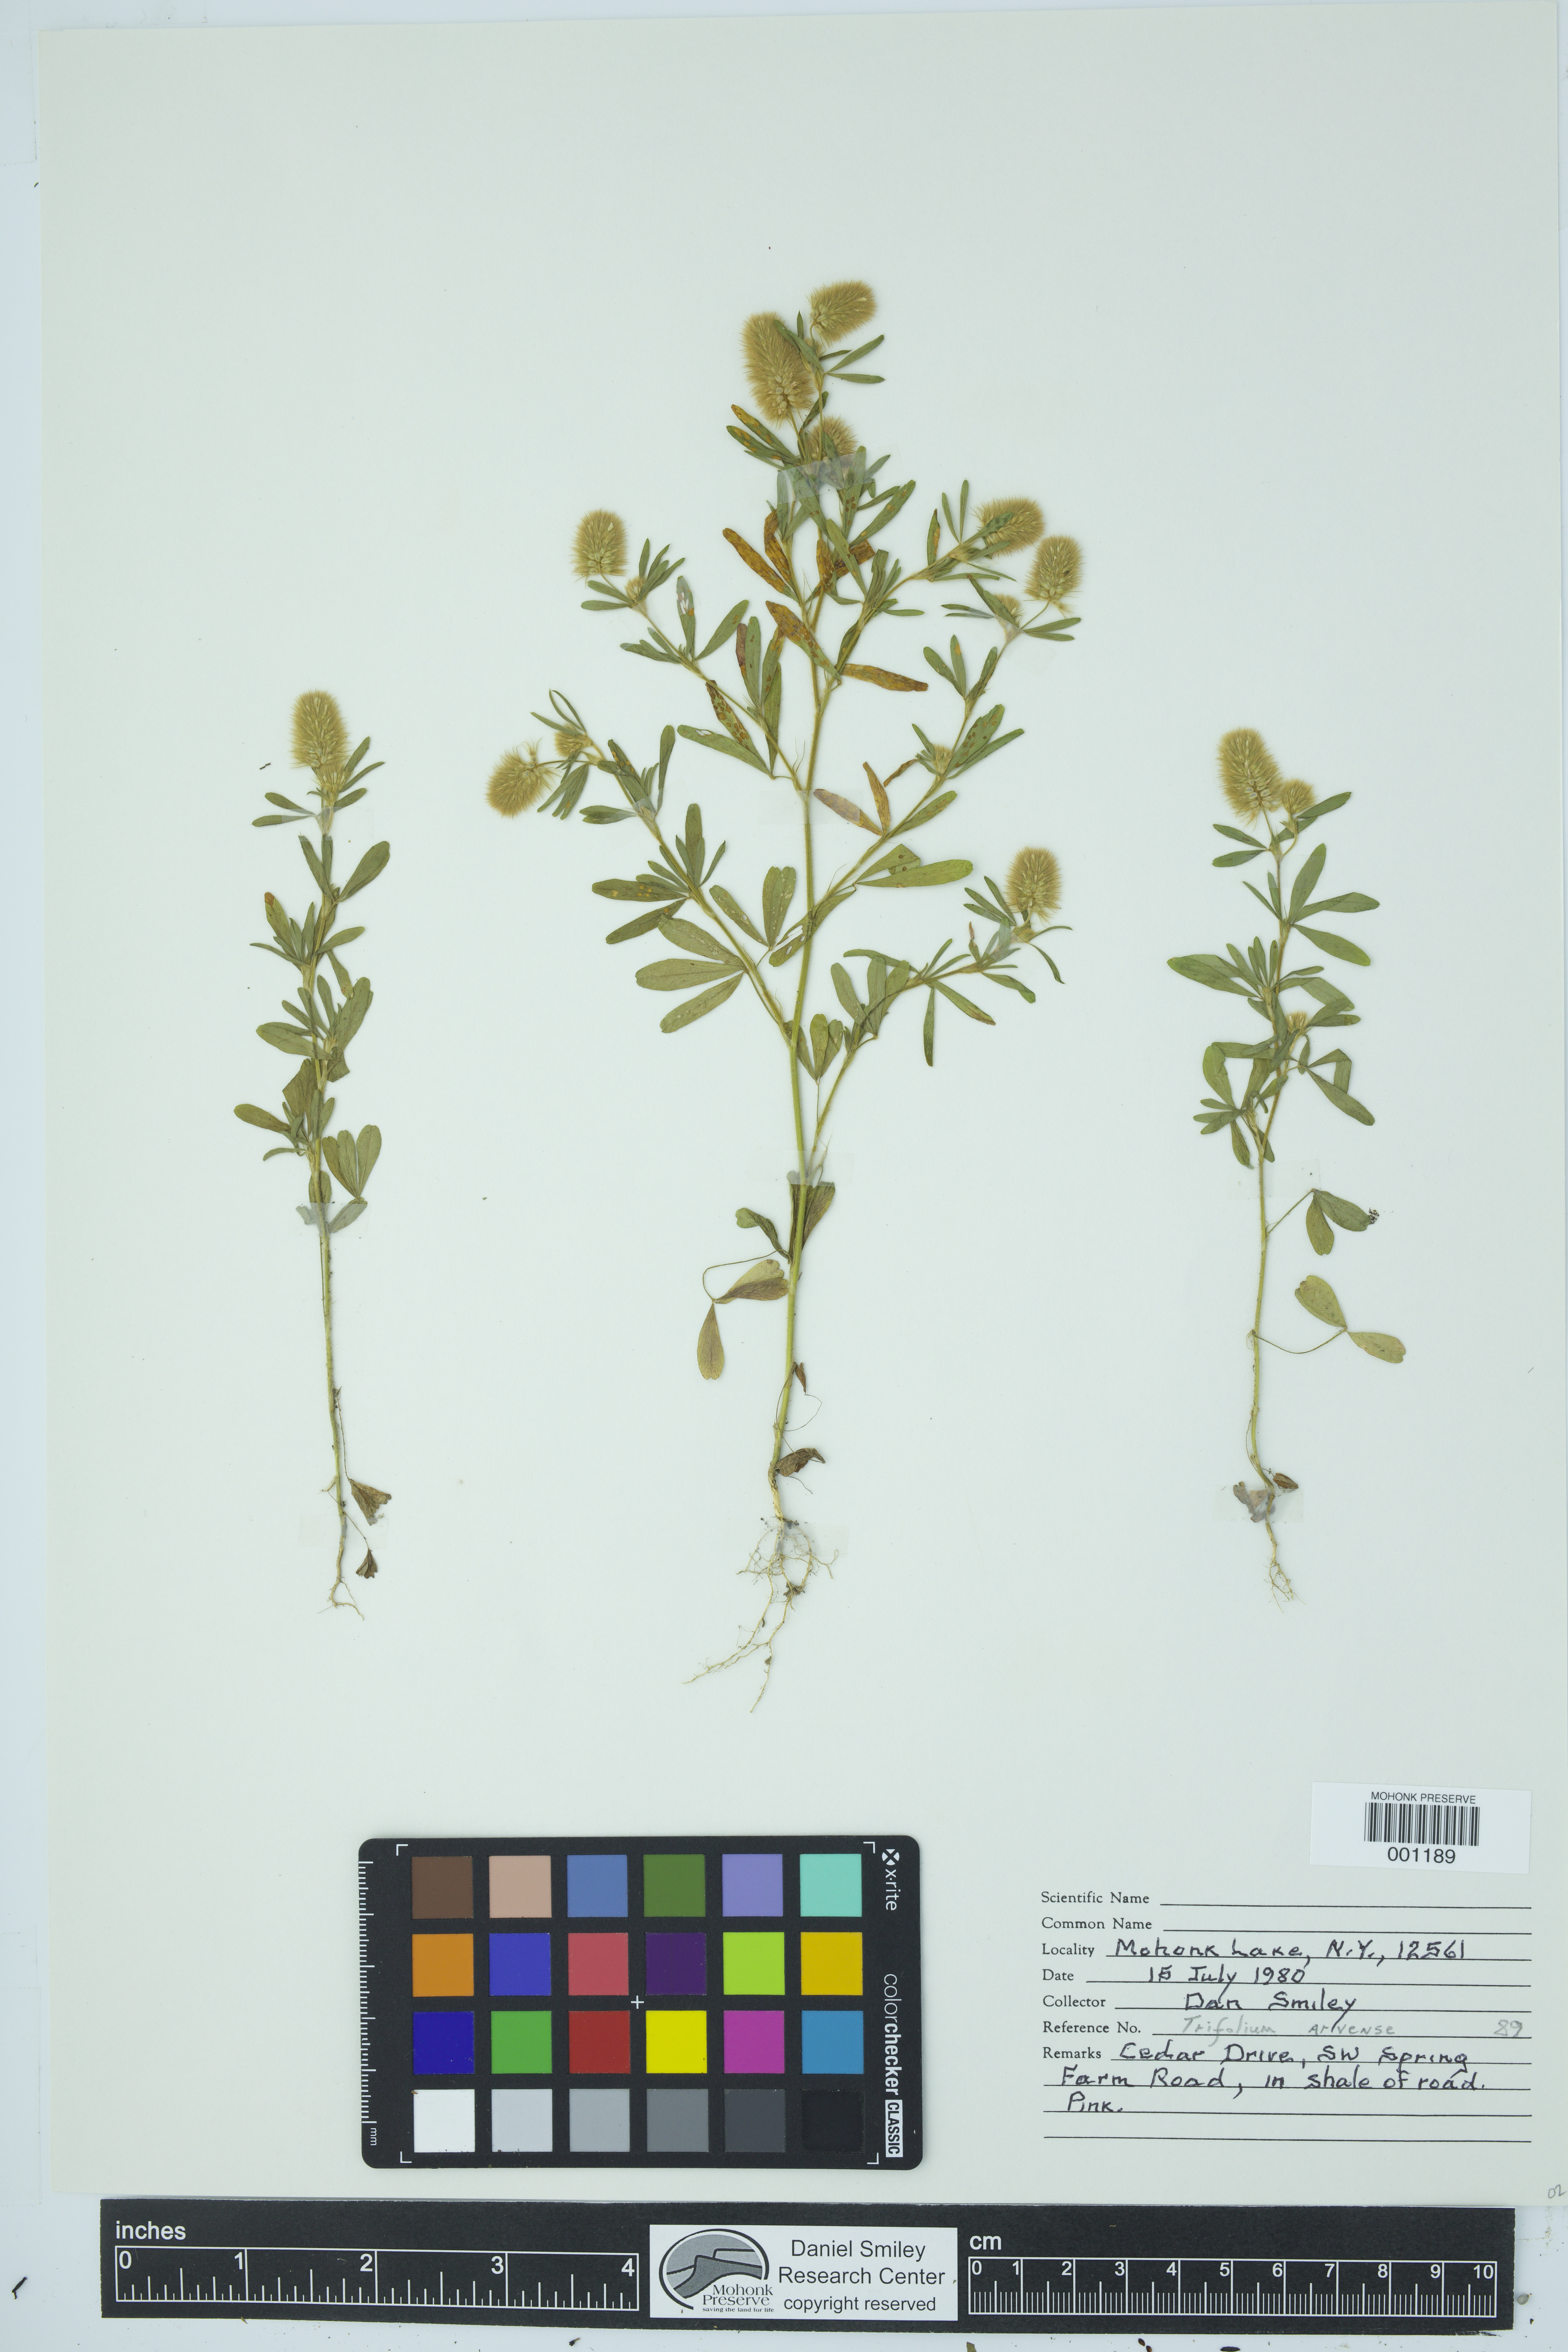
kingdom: Plantae
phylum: Tracheophyta
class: Magnoliopsida
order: Fabales
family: Fabaceae
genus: Trifolium
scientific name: Trifolium arvense
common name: Hare's-foot clover
